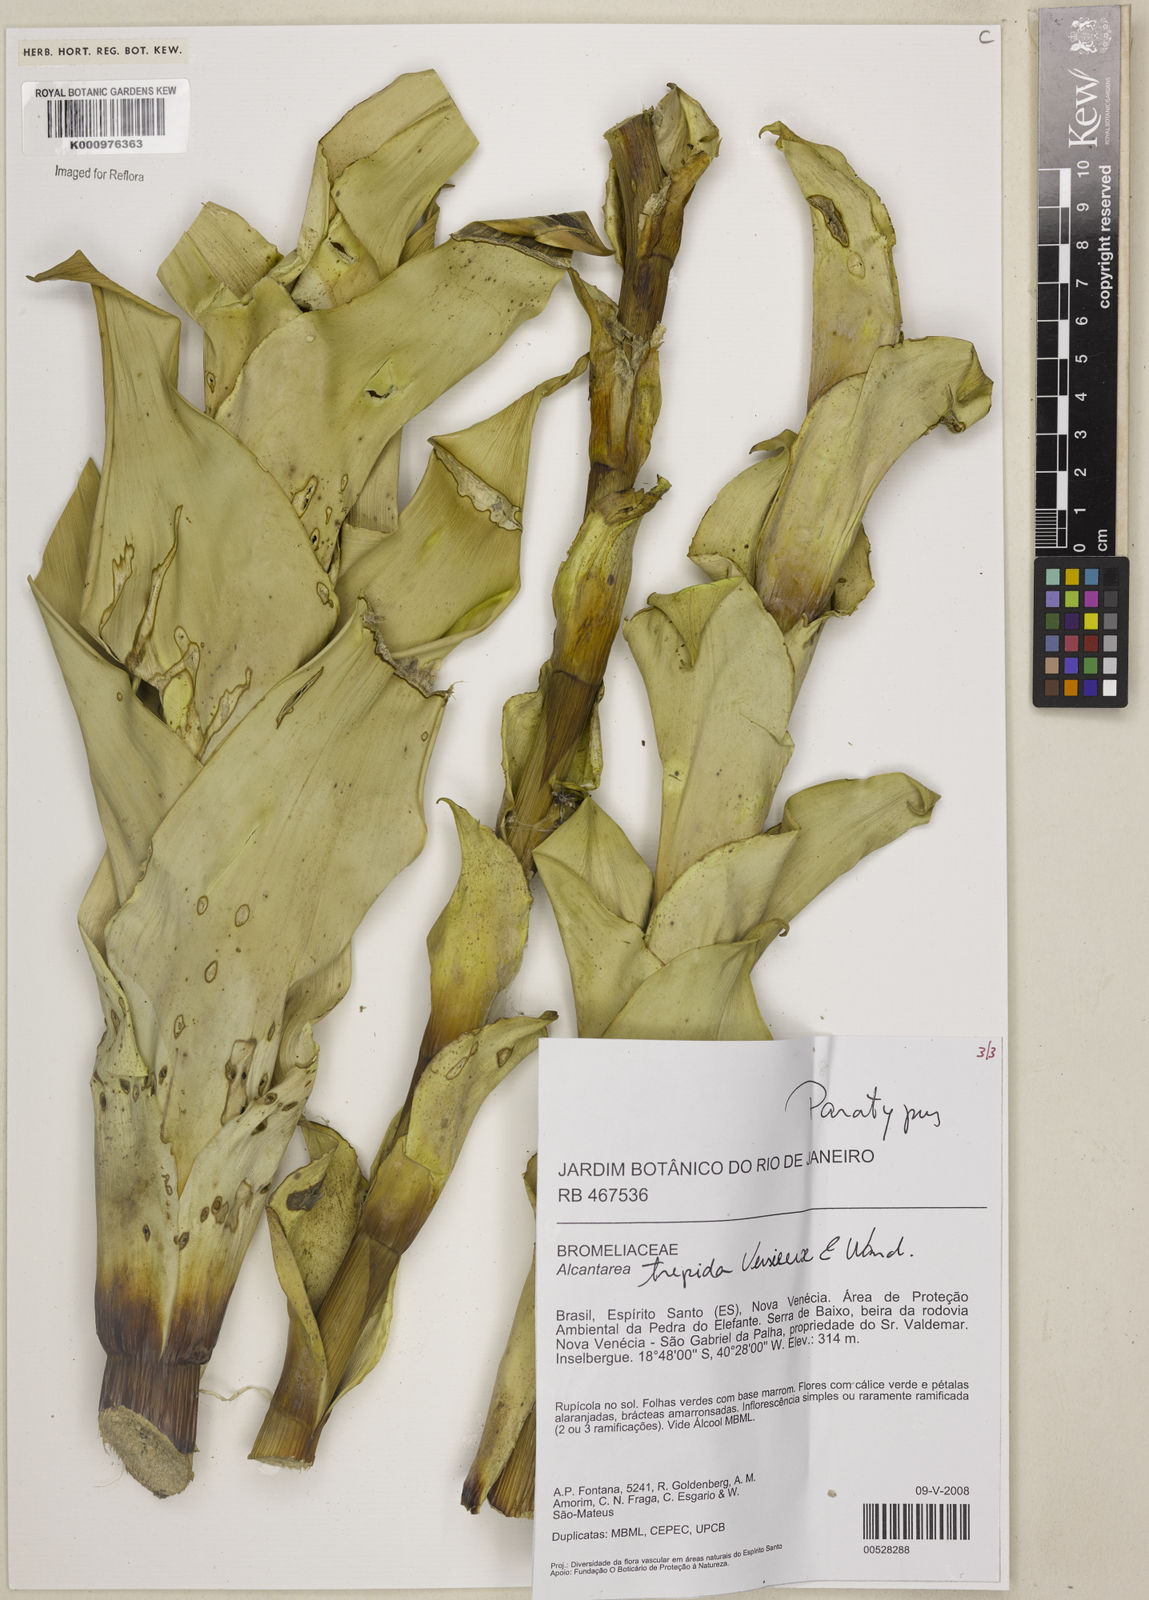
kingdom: Plantae
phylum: Tracheophyta
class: Liliopsida
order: Poales
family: Bromeliaceae
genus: Vriesea
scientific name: Vriesea
